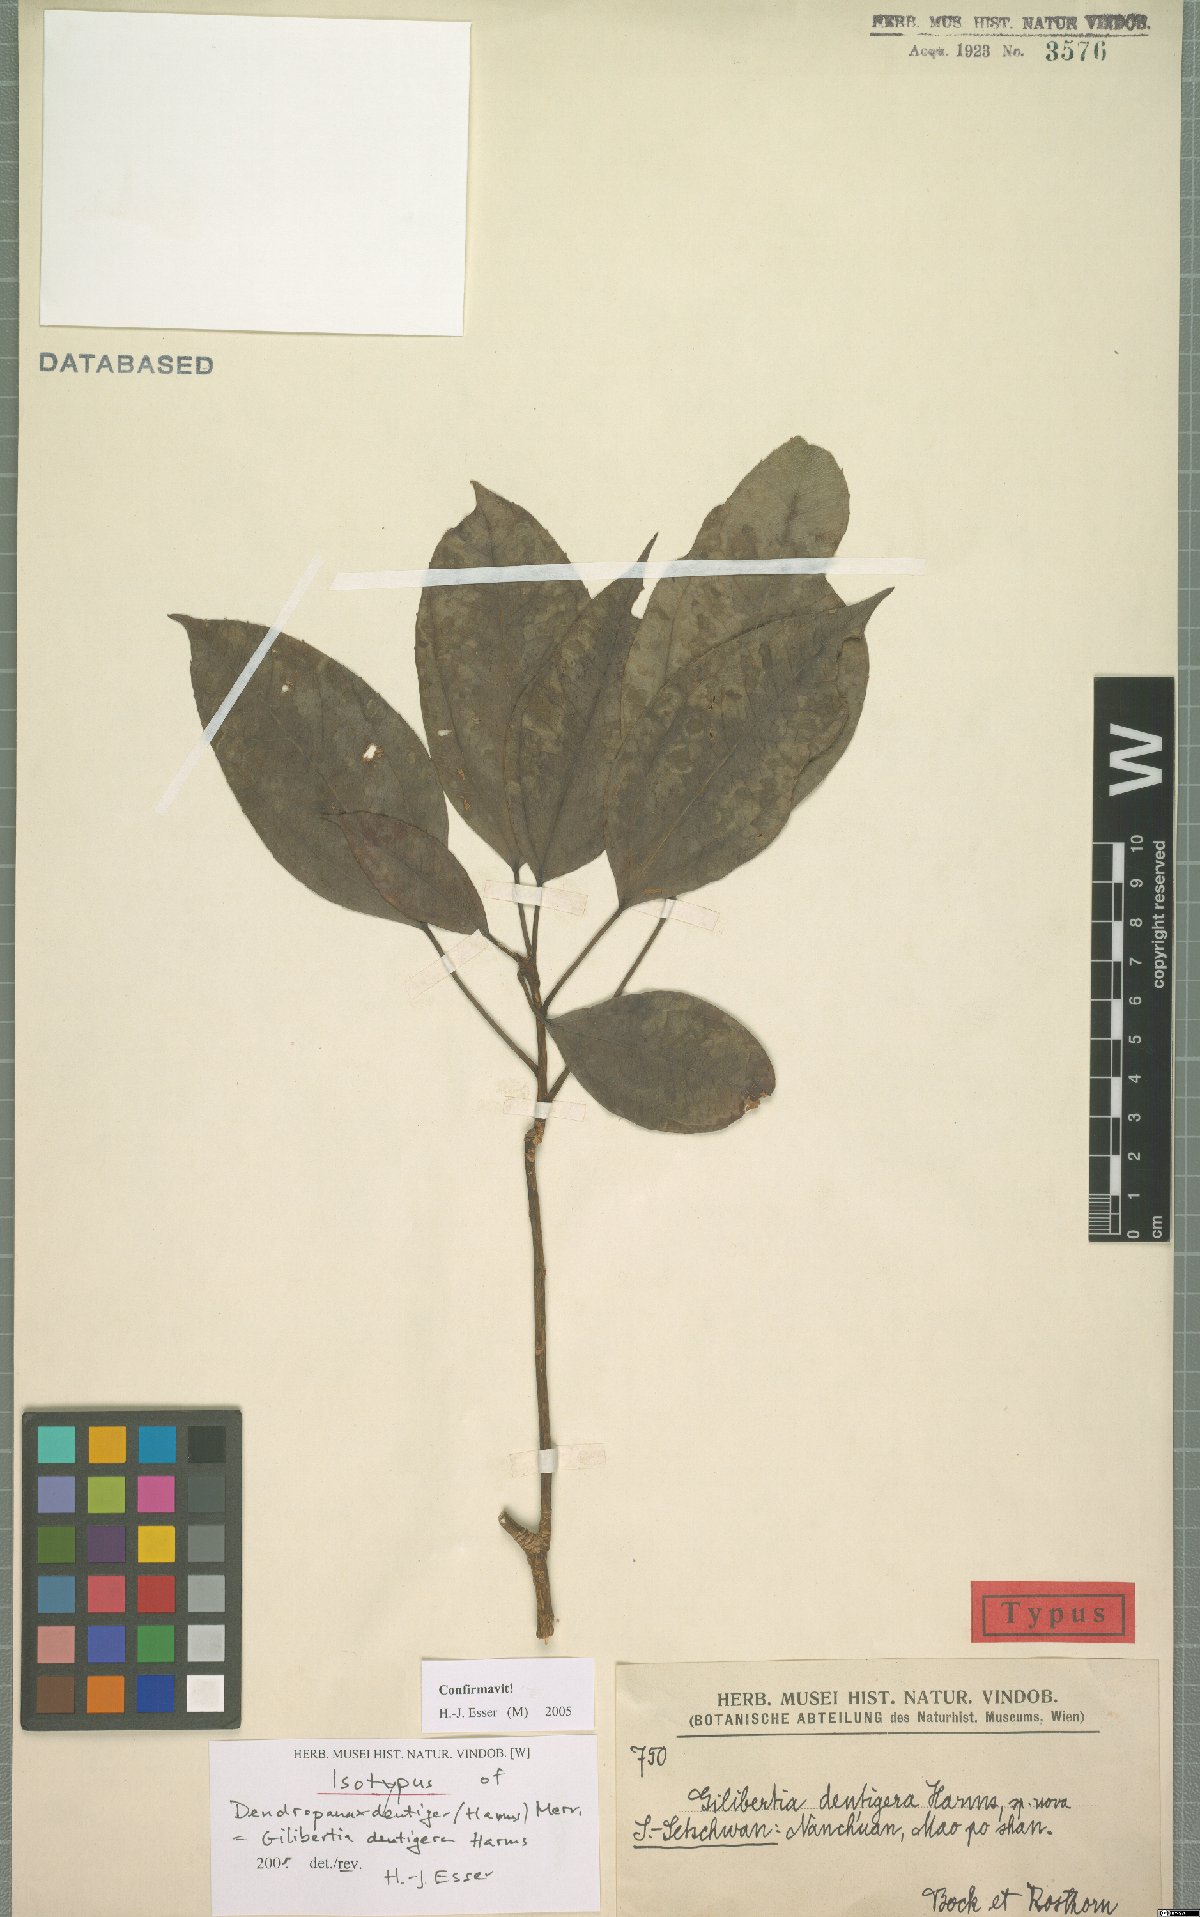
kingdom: Plantae
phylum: Tracheophyta
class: Magnoliopsida
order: Apiales
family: Araliaceae
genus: Dendropanax
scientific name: Dendropanax dentiger
